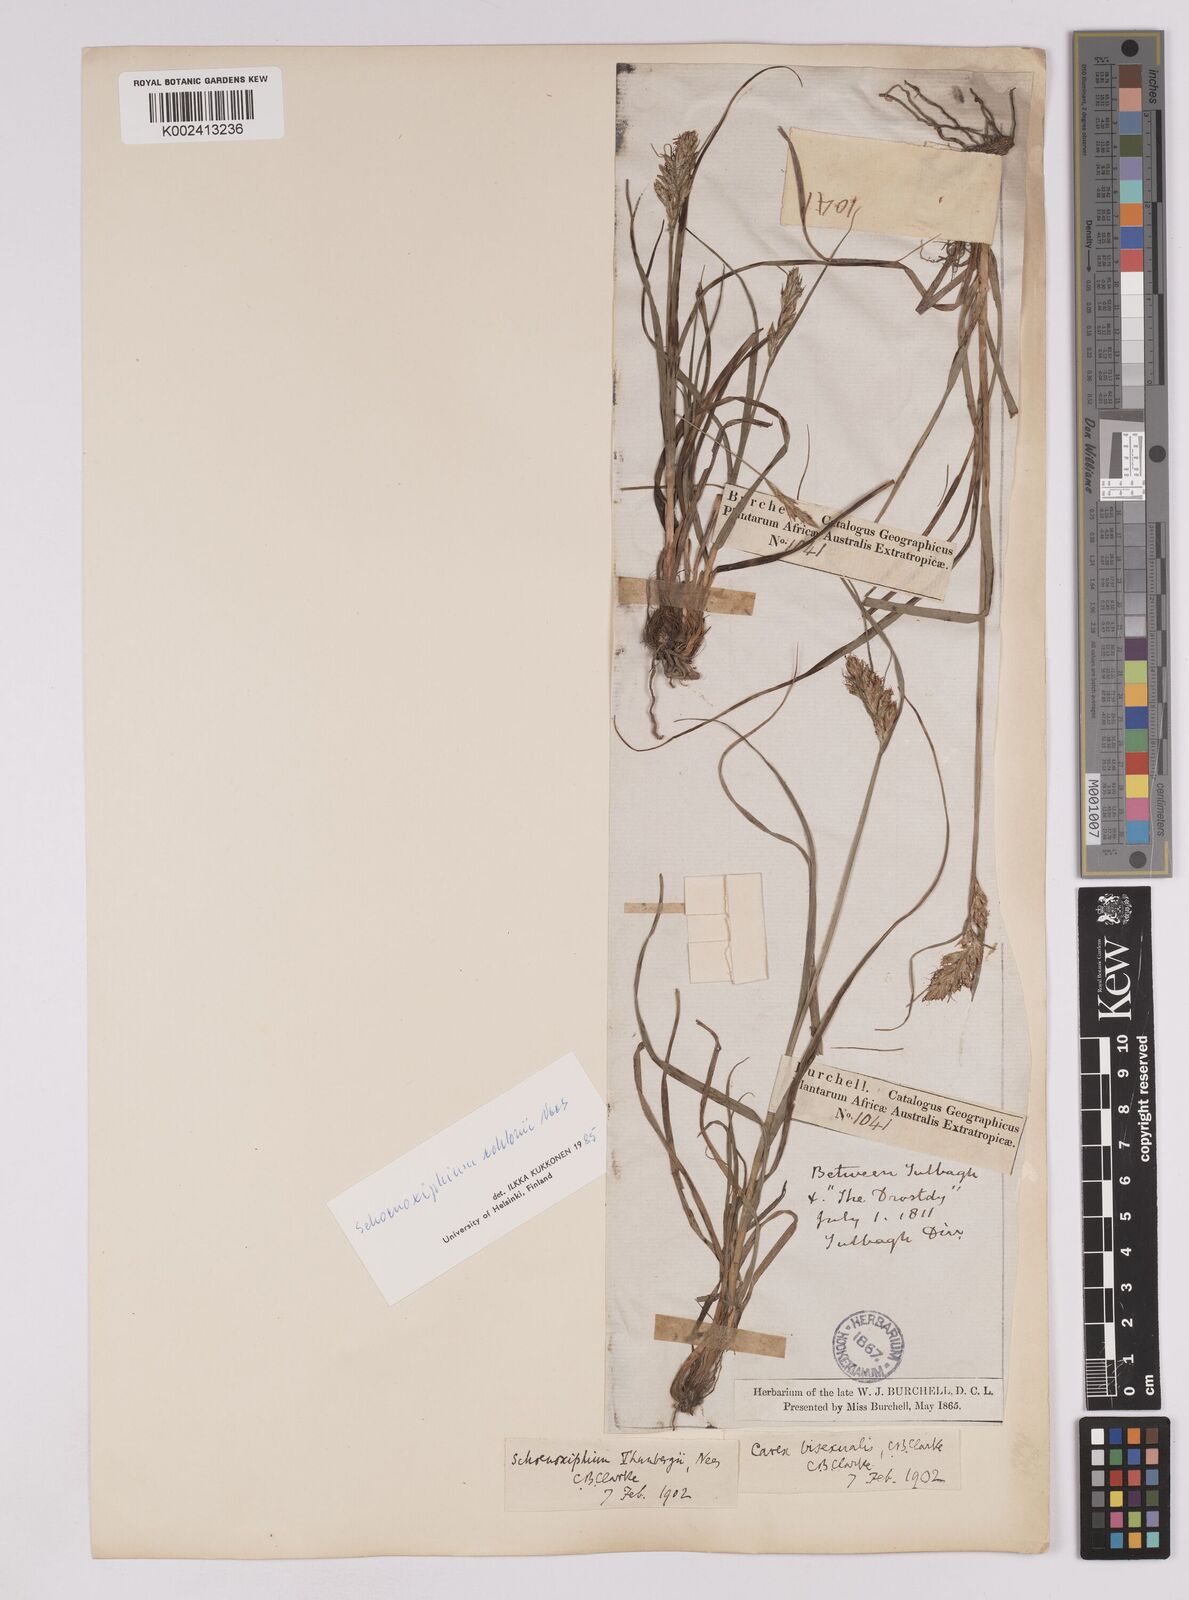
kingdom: Plantae
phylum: Tracheophyta
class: Liliopsida
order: Poales
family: Cyperaceae
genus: Carex
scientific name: Carex capensis
